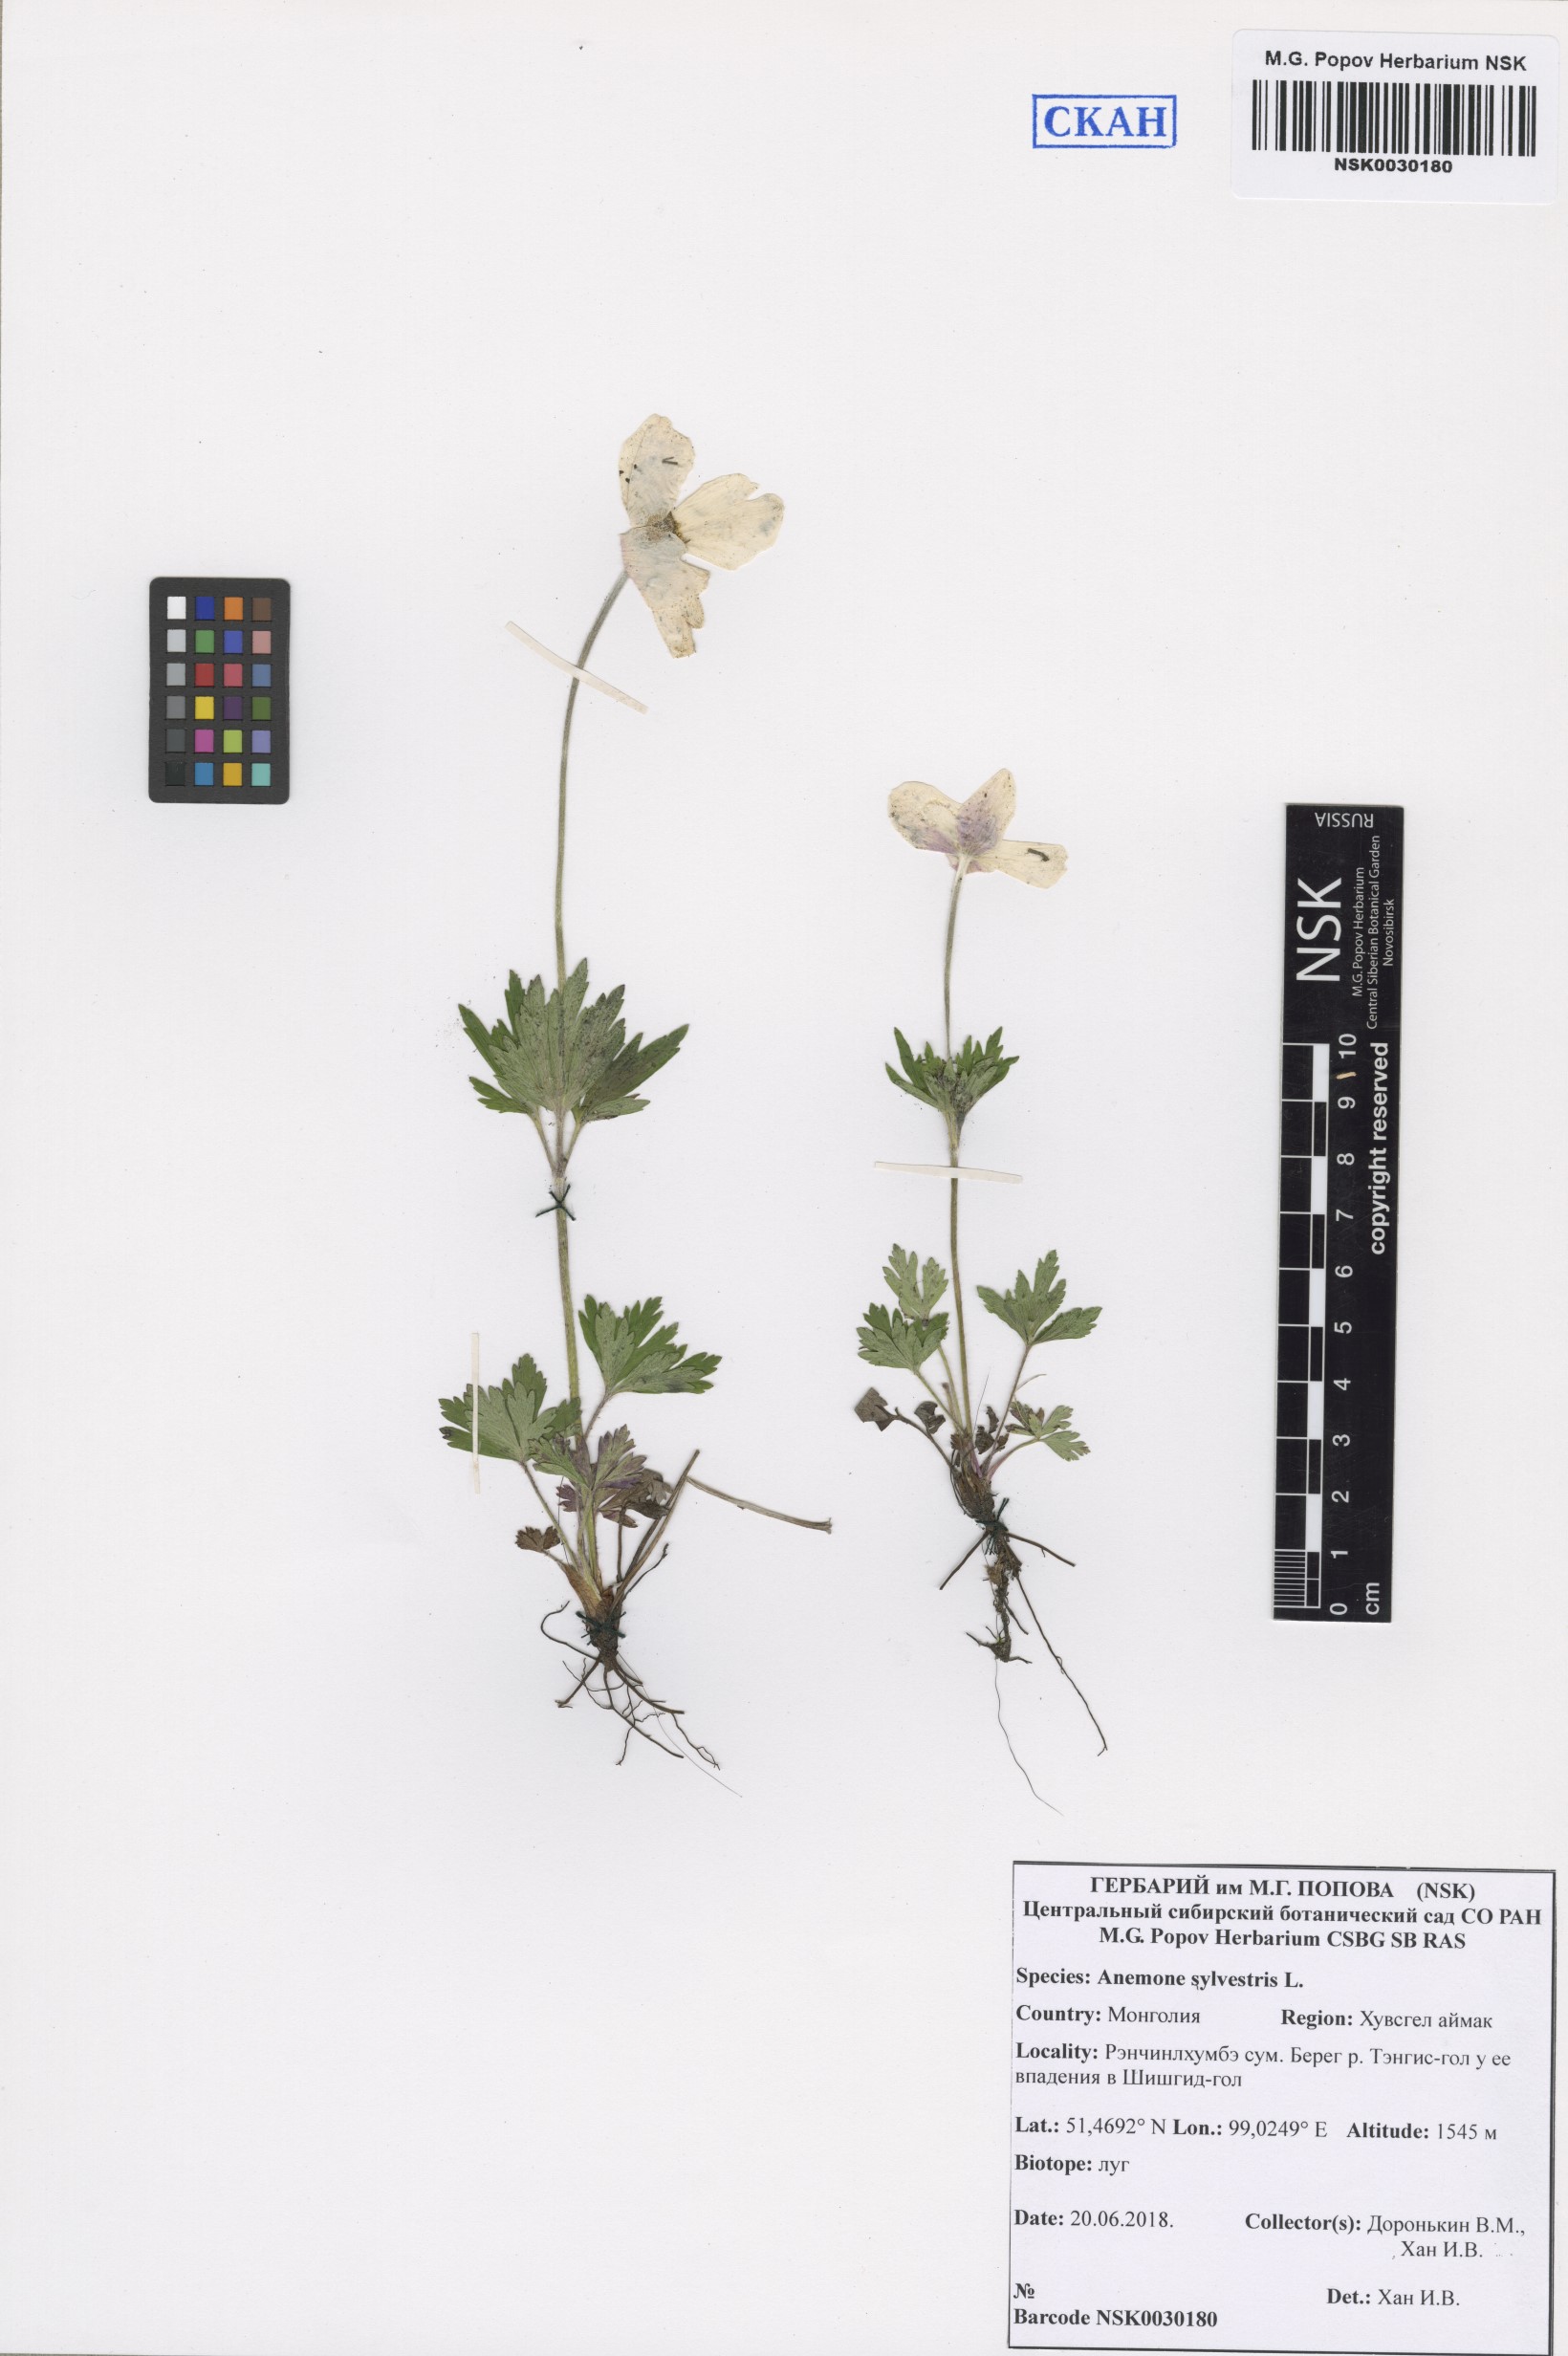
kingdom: Plantae
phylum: Tracheophyta
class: Magnoliopsida
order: Ranunculales
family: Ranunculaceae
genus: Anemone
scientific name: Anemone sylvestris
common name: Snowdrop anemone
